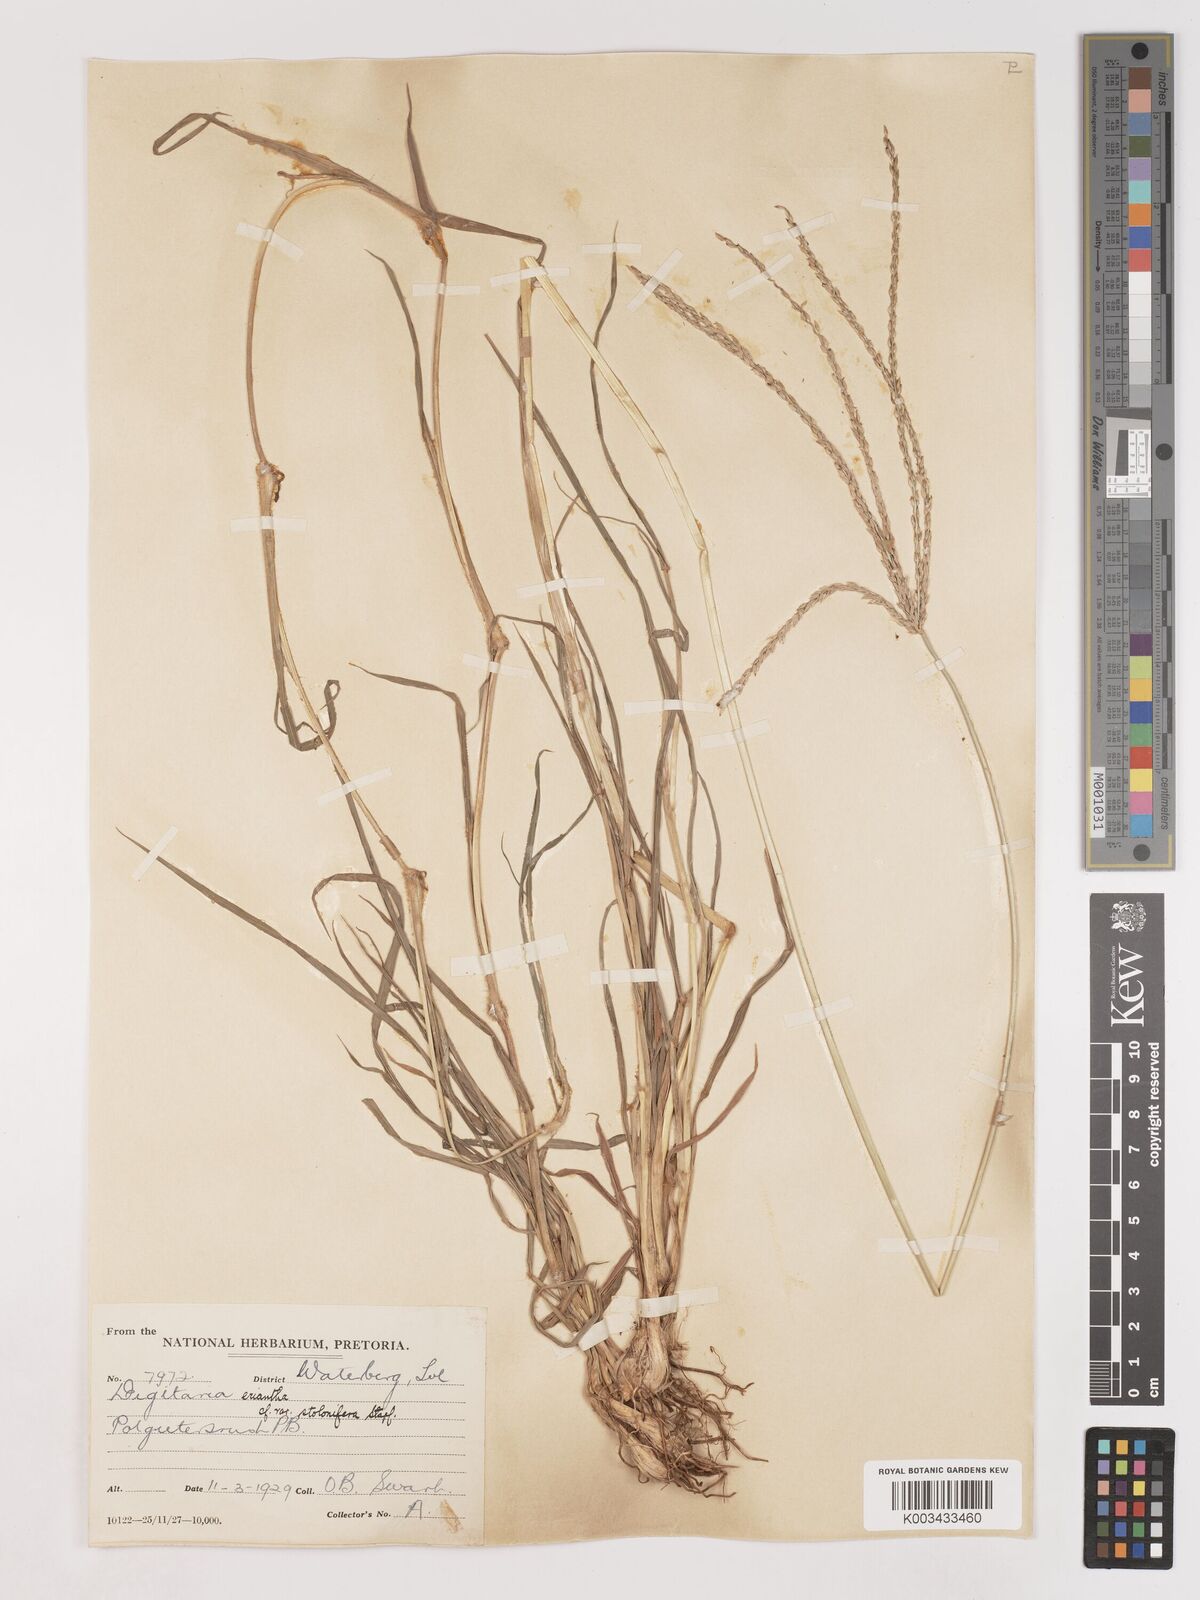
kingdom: Plantae
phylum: Tracheophyta
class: Liliopsida
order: Poales
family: Poaceae
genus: Digitaria
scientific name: Digitaria eriantha
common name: Digitgrass
